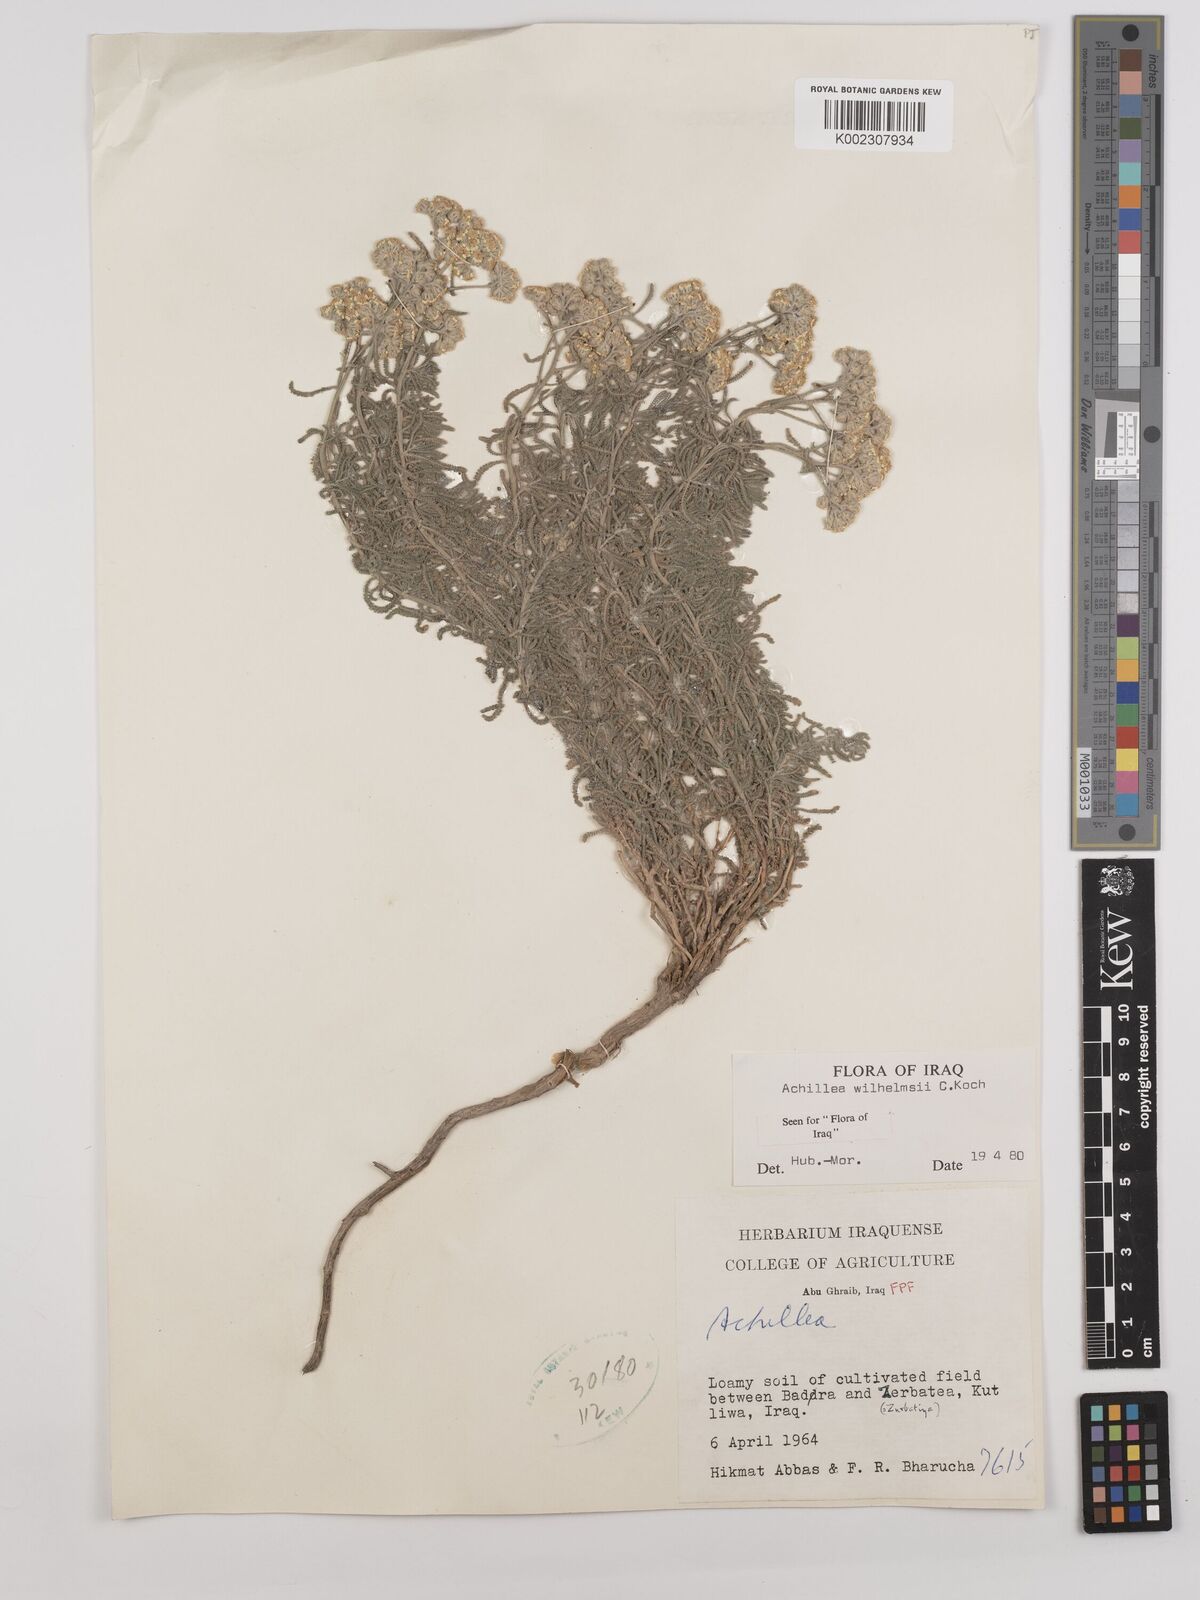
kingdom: Plantae
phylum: Tracheophyta
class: Magnoliopsida
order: Asterales
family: Asteraceae
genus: Achillea
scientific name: Achillea wilhelmsii
